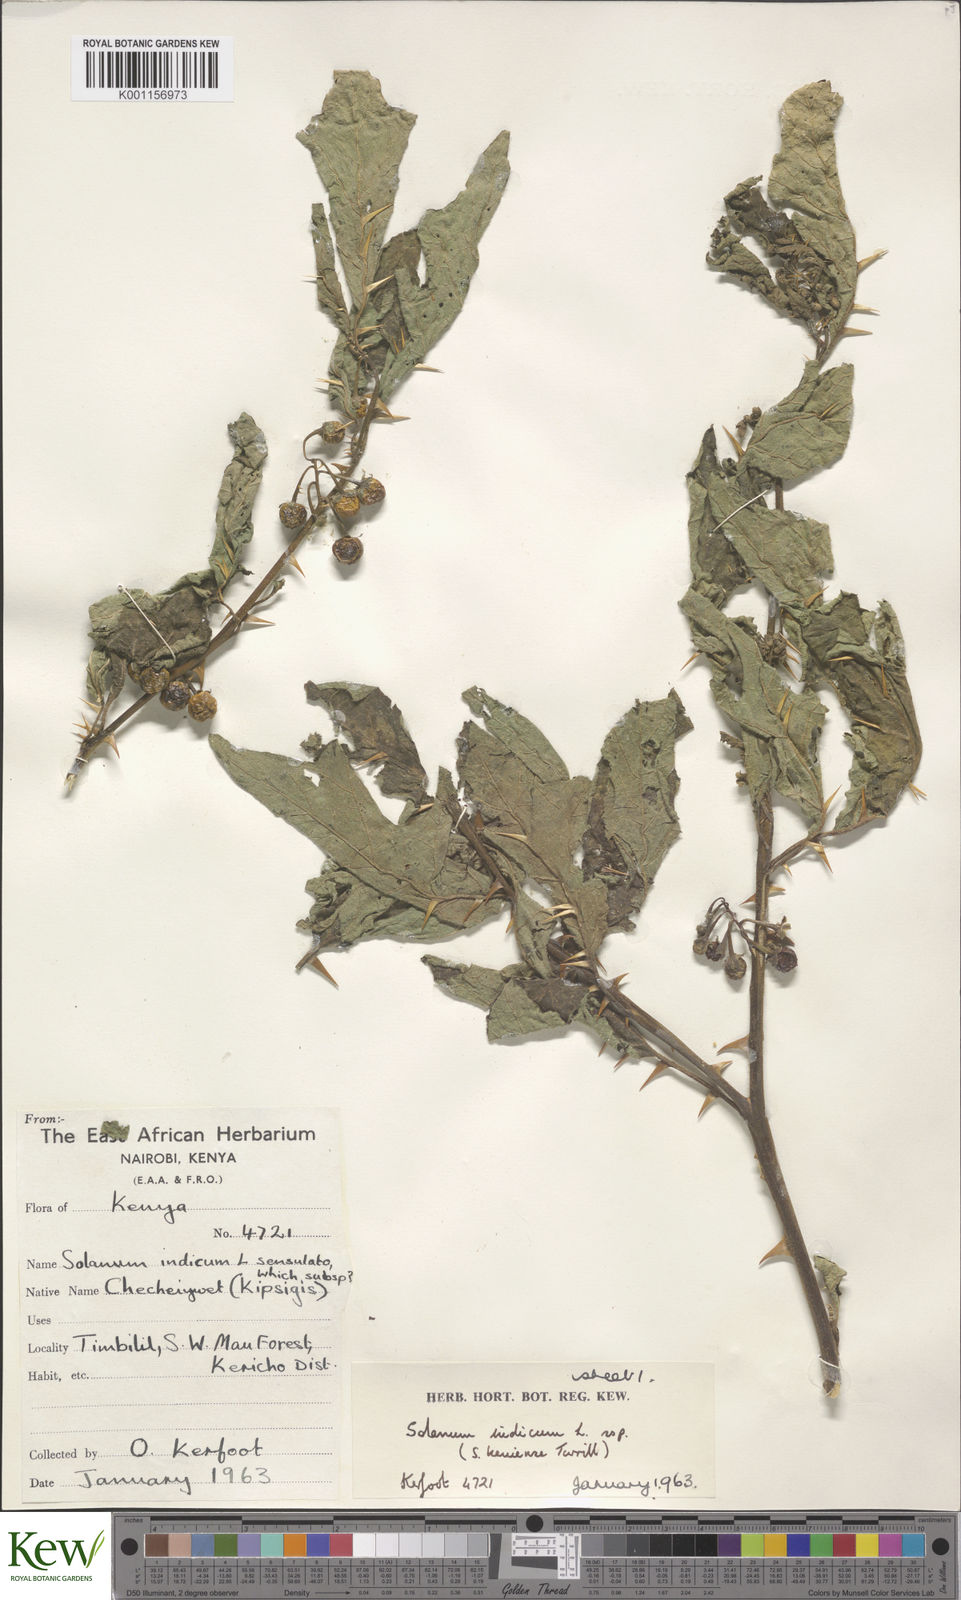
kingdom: Plantae
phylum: Tracheophyta
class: Magnoliopsida
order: Solanales
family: Solanaceae
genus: Solanum
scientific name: Solanum anguivi
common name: Forest bitterberry
